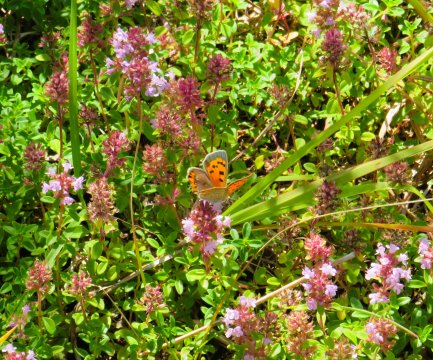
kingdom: Animalia
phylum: Arthropoda
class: Insecta
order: Lepidoptera
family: Lycaenidae
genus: Lycaena
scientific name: Lycaena phlaeas
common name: American Copper
